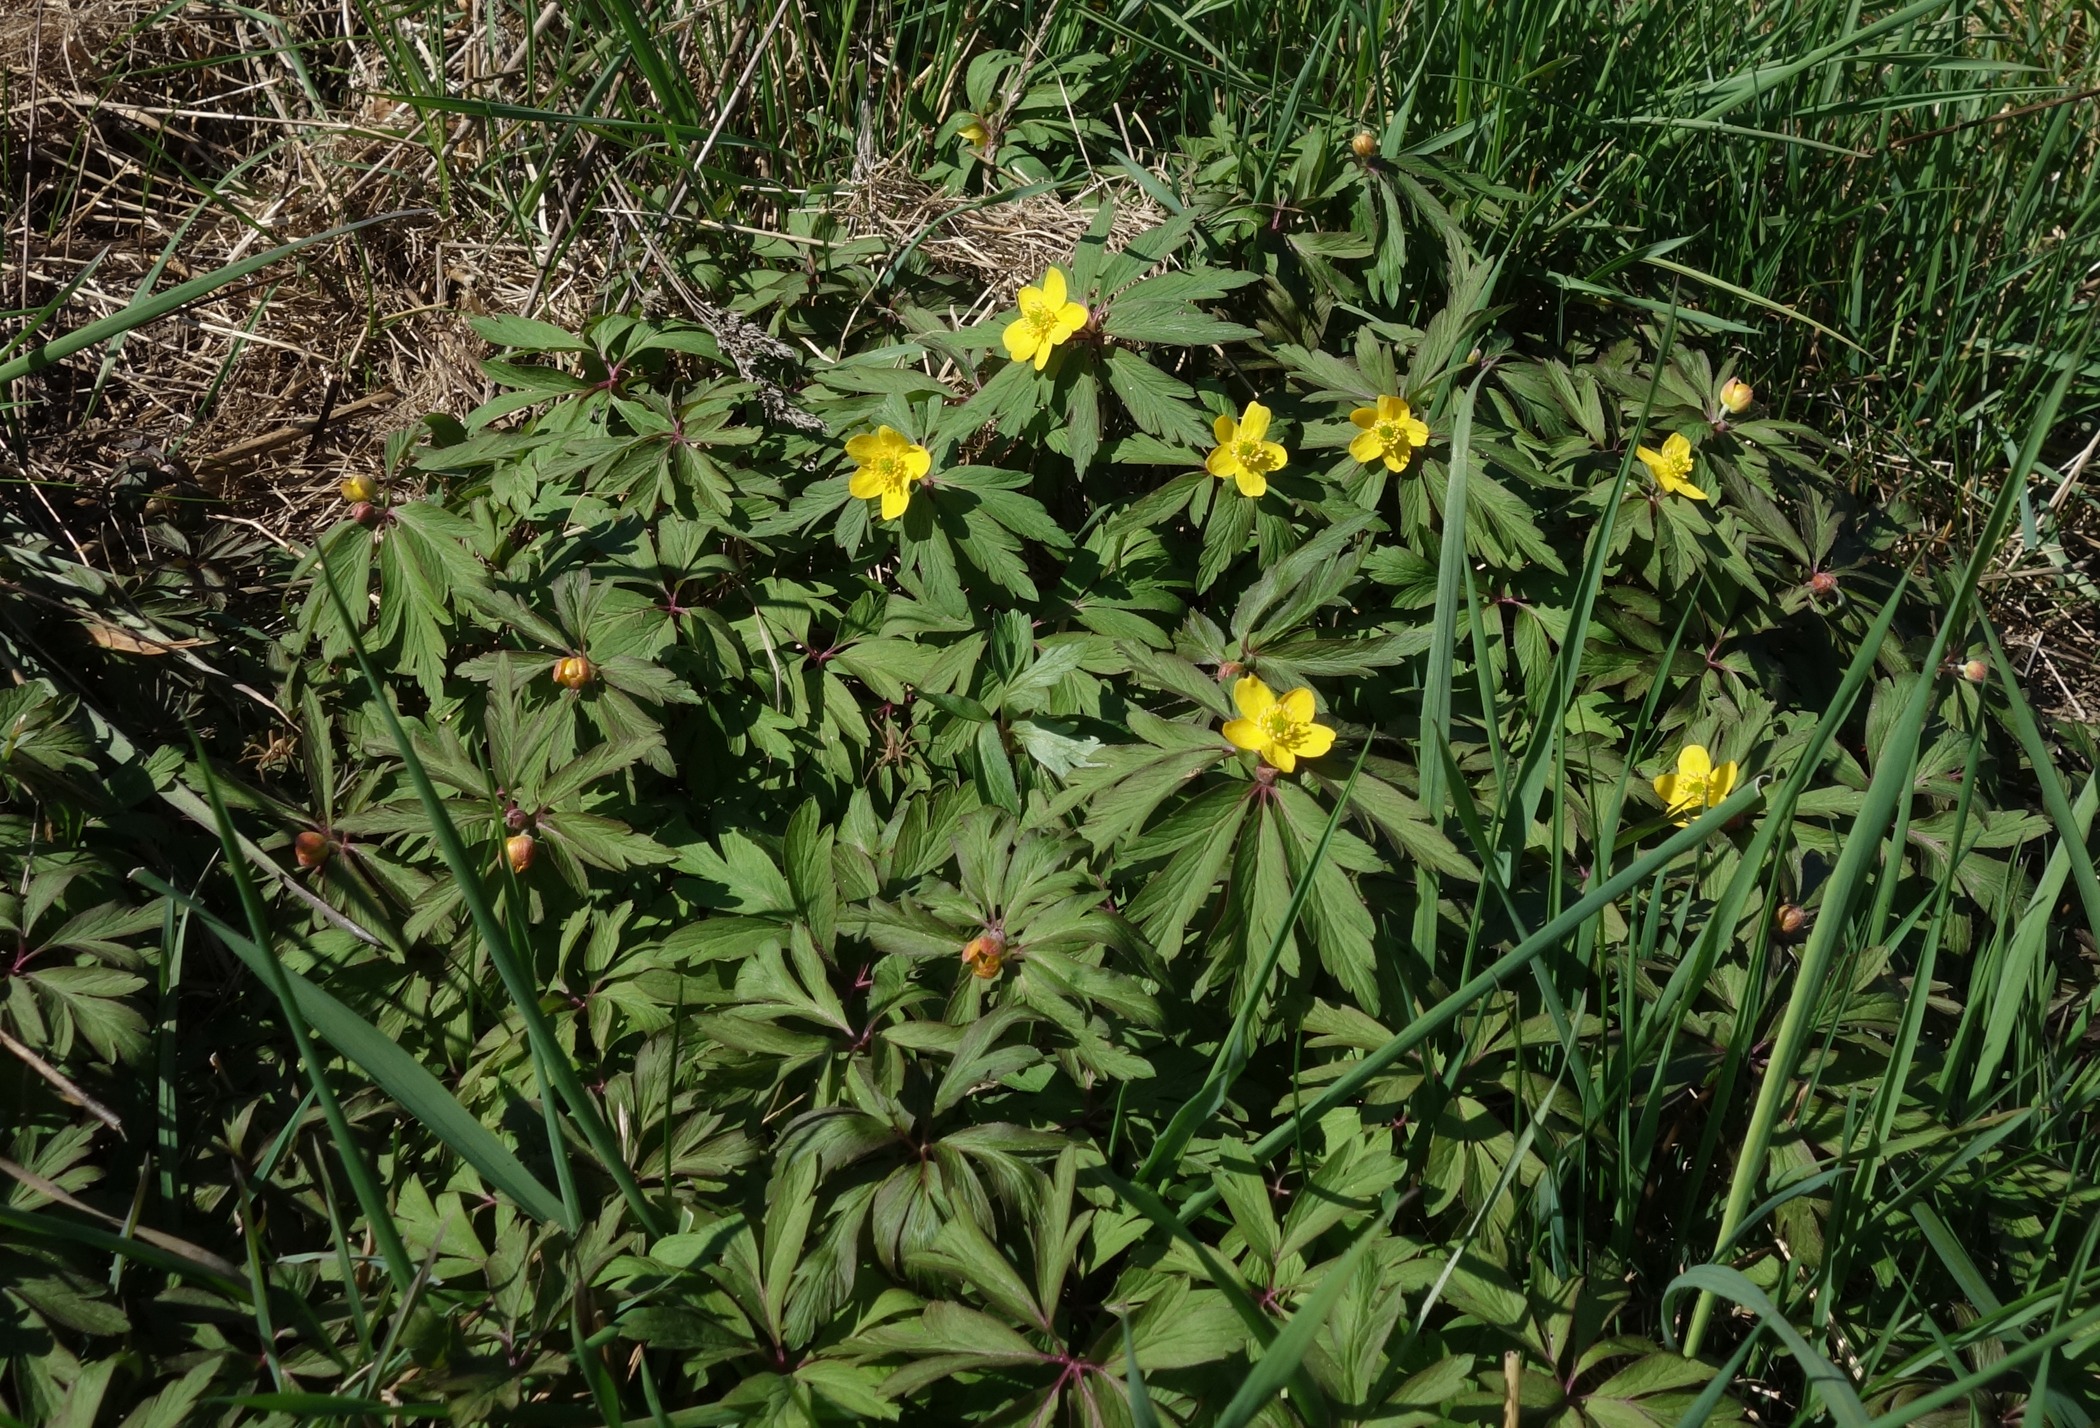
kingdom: Plantae
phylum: Tracheophyta
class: Magnoliopsida
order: Ranunculales
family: Ranunculaceae
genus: Anemone
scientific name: Anemone ranunculoides
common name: Gul anemone
